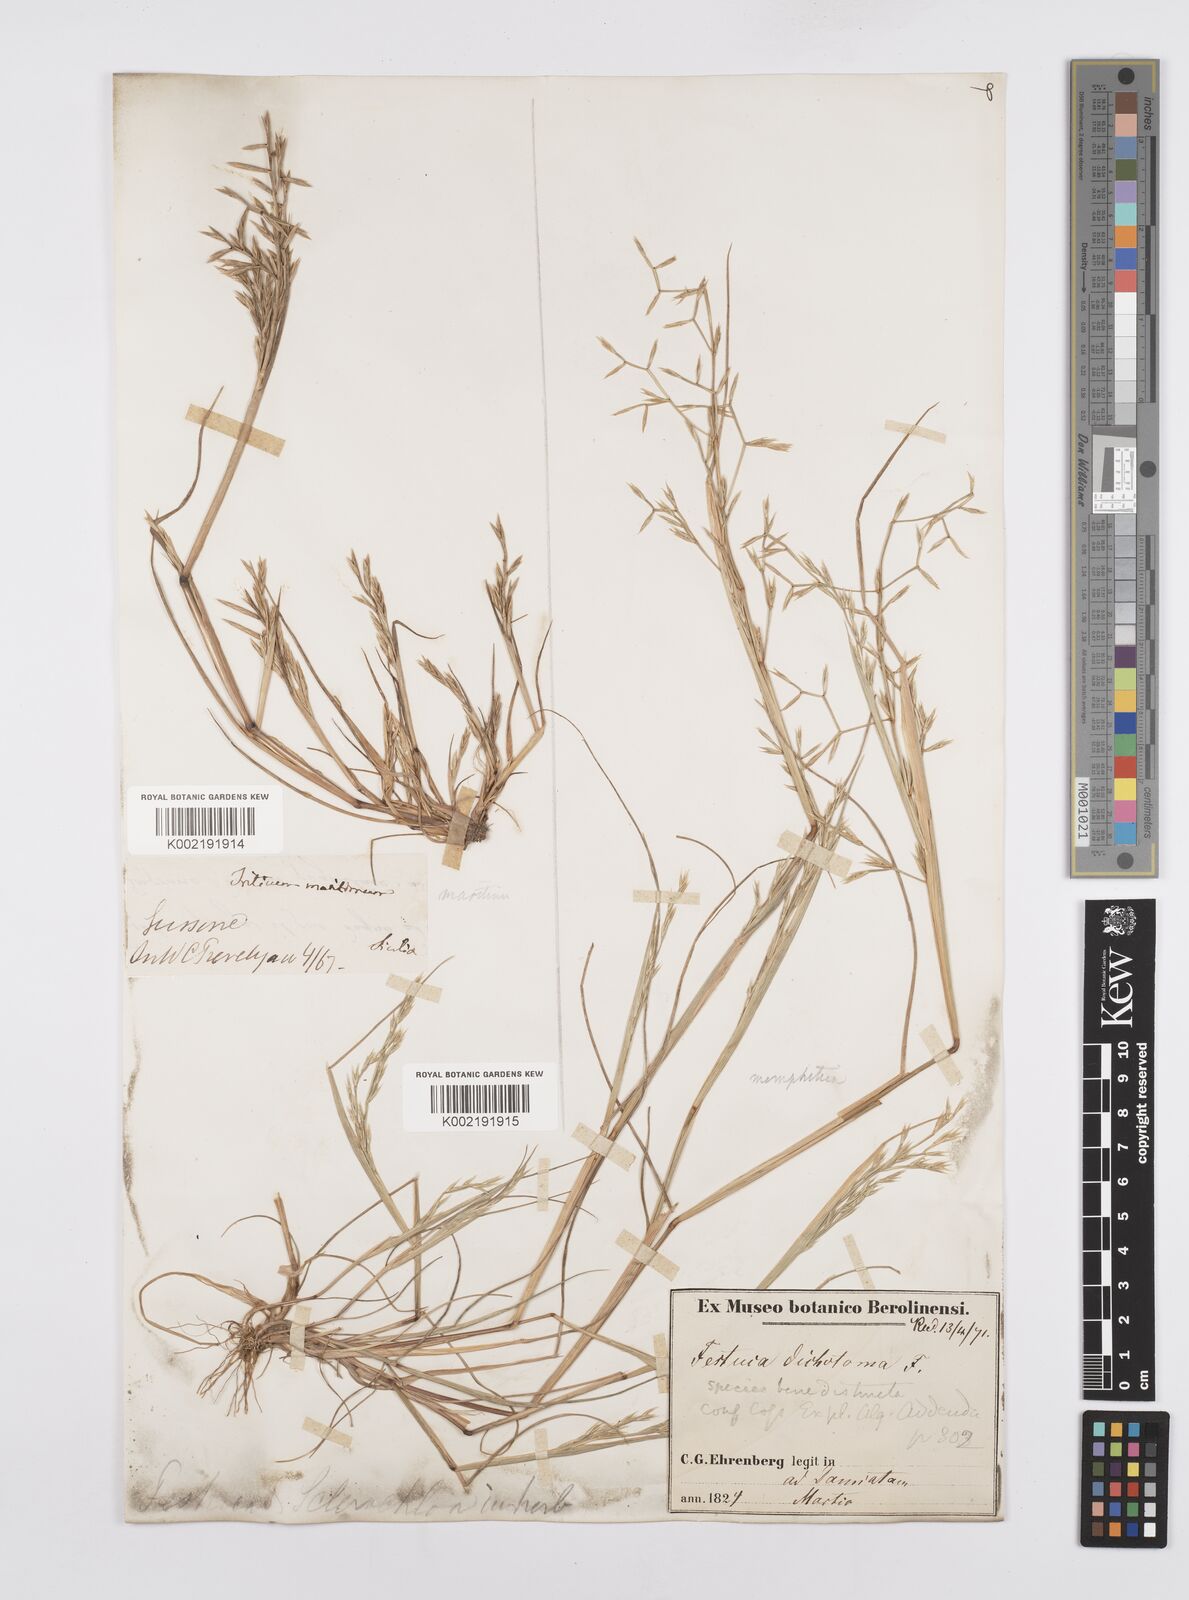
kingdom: Plantae
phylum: Tracheophyta
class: Liliopsida
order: Poales
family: Poaceae
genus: Cutandia
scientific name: Cutandia maritima
